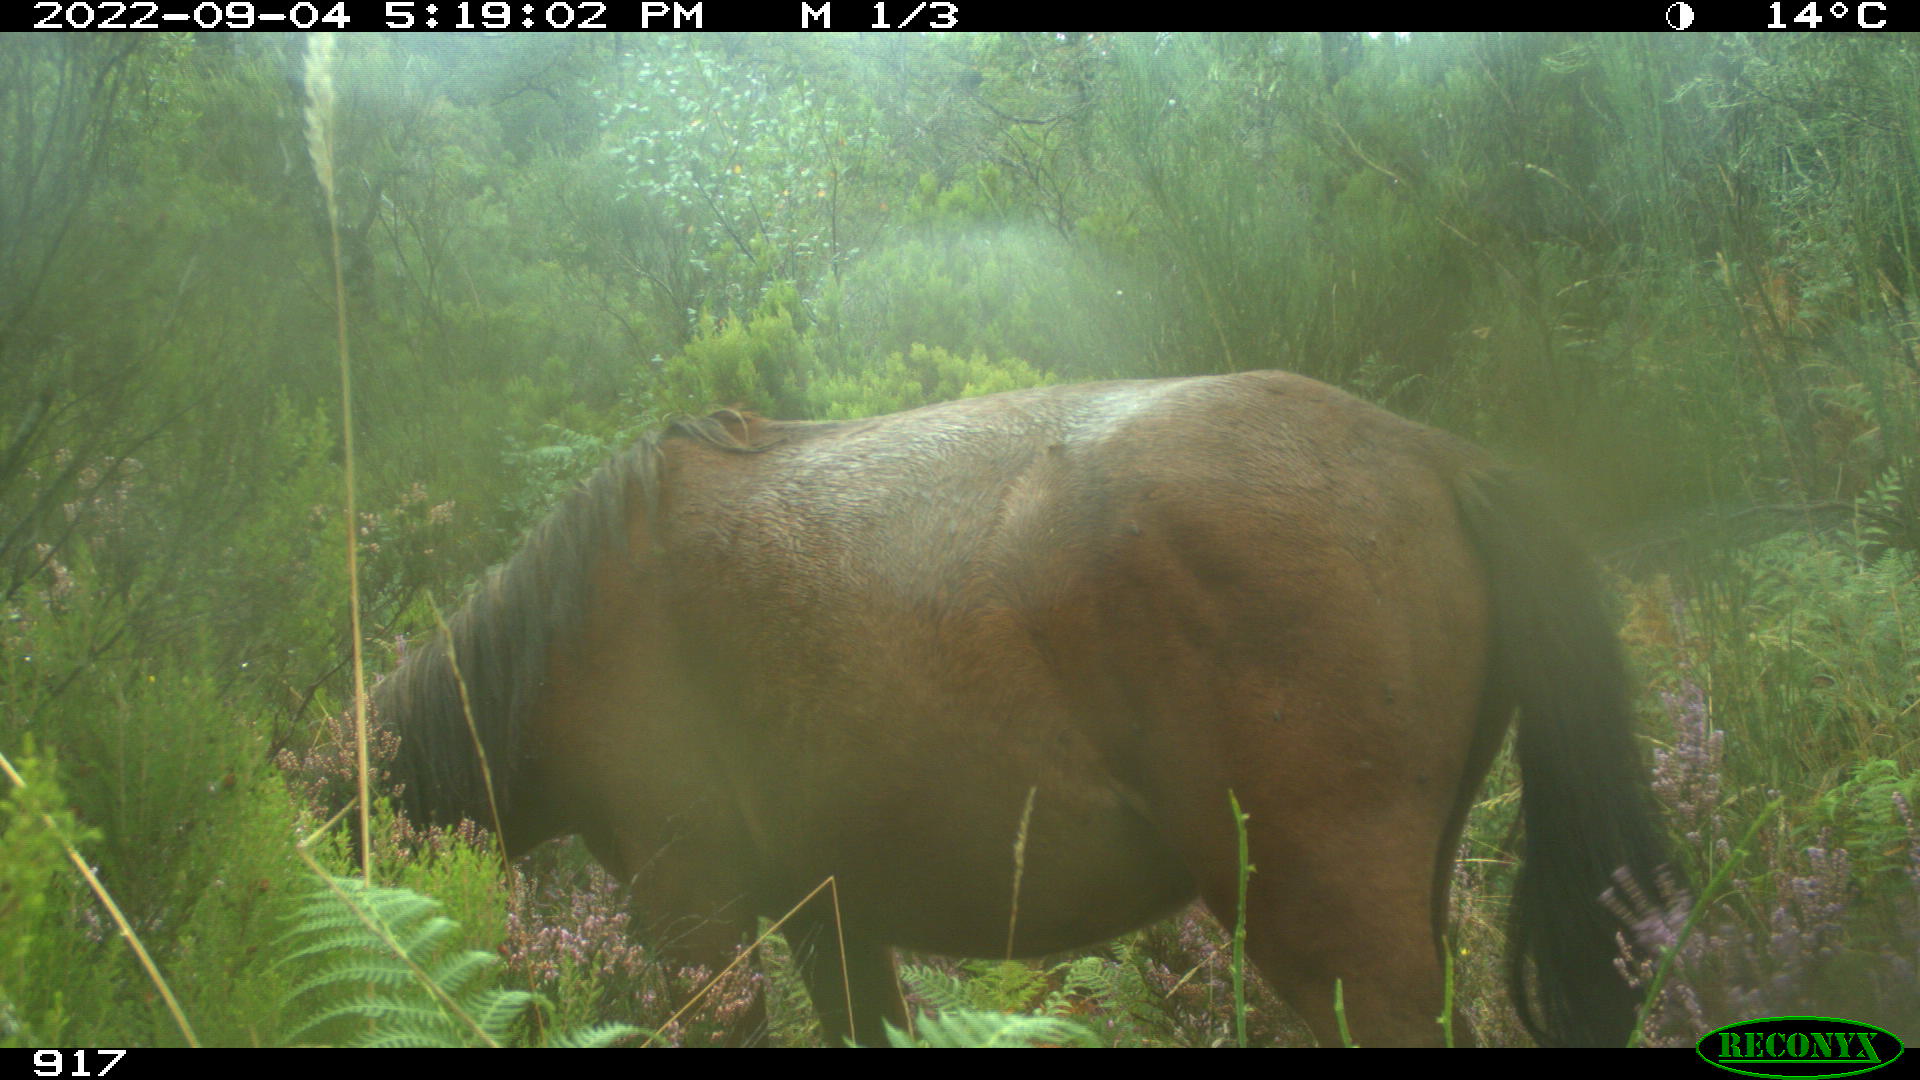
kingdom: Animalia
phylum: Chordata
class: Mammalia
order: Perissodactyla
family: Equidae
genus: Equus
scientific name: Equus caballus
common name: Horse
